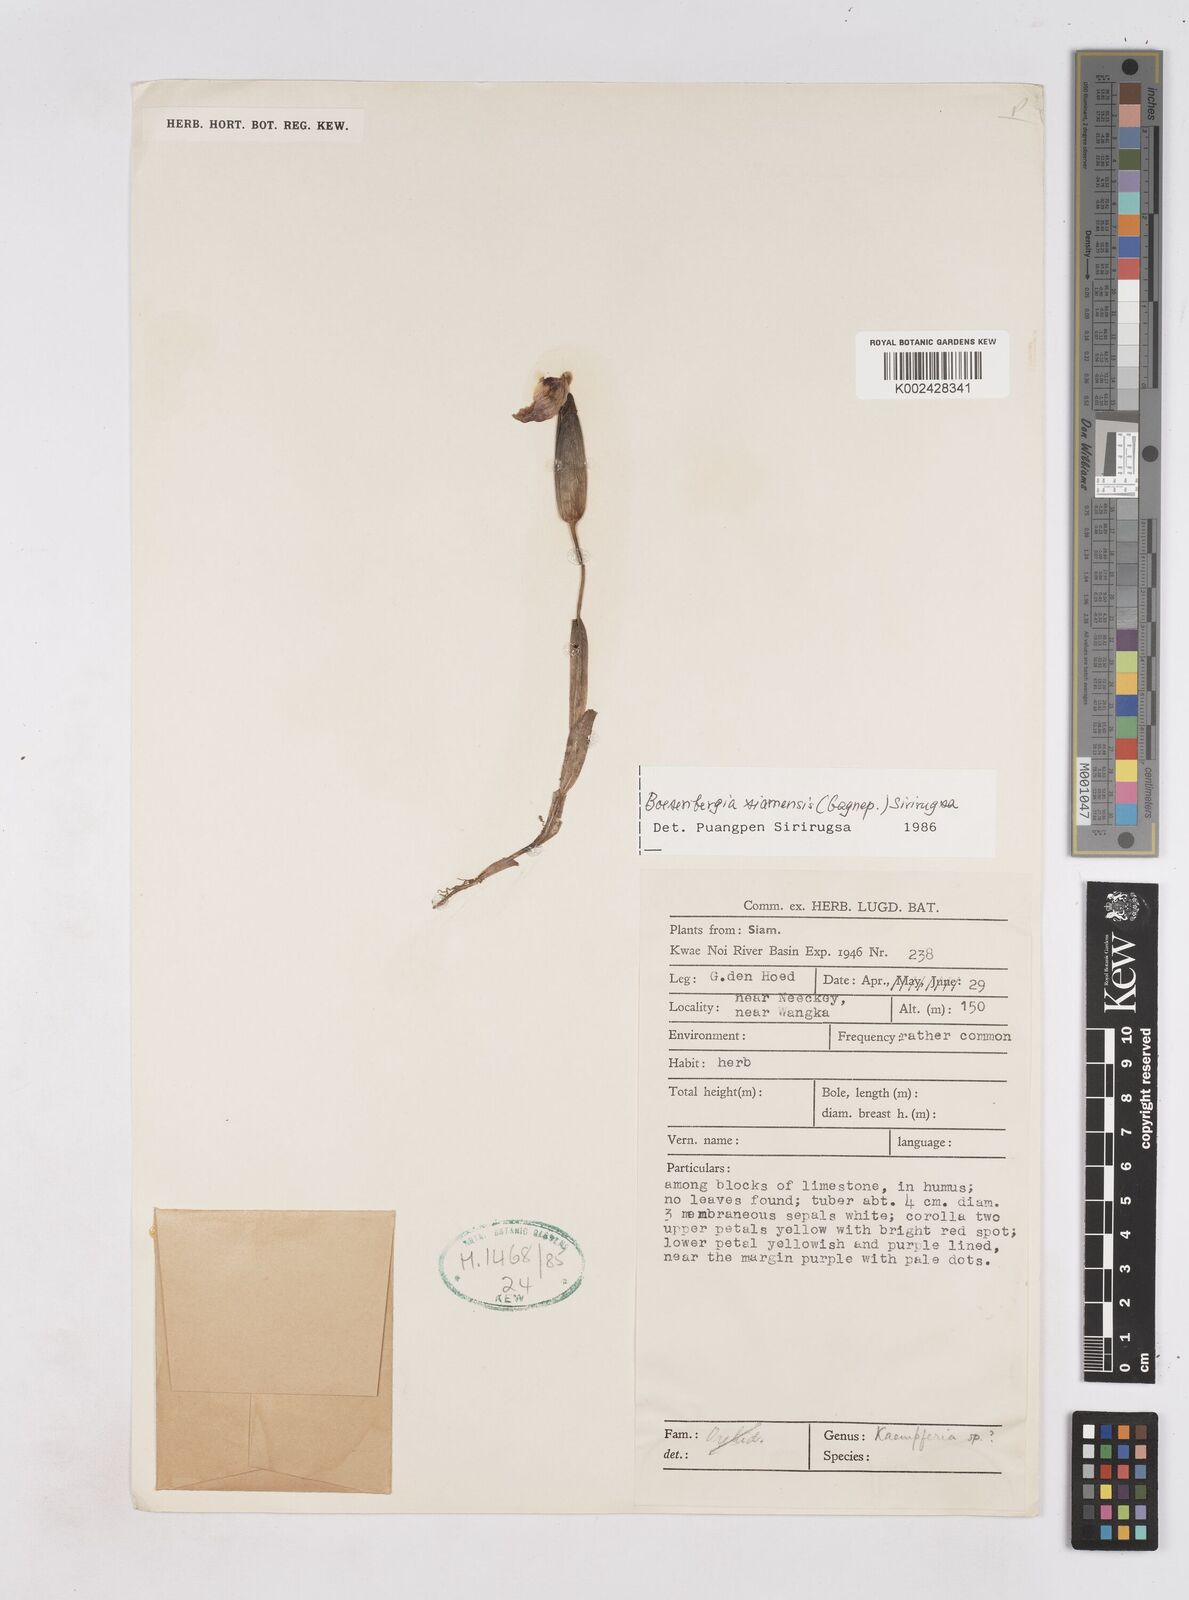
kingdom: Plantae
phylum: Tracheophyta
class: Liliopsida
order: Zingiberales
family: Zingiberaceae
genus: Boesenbergia
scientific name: Boesenbergia siamensis
